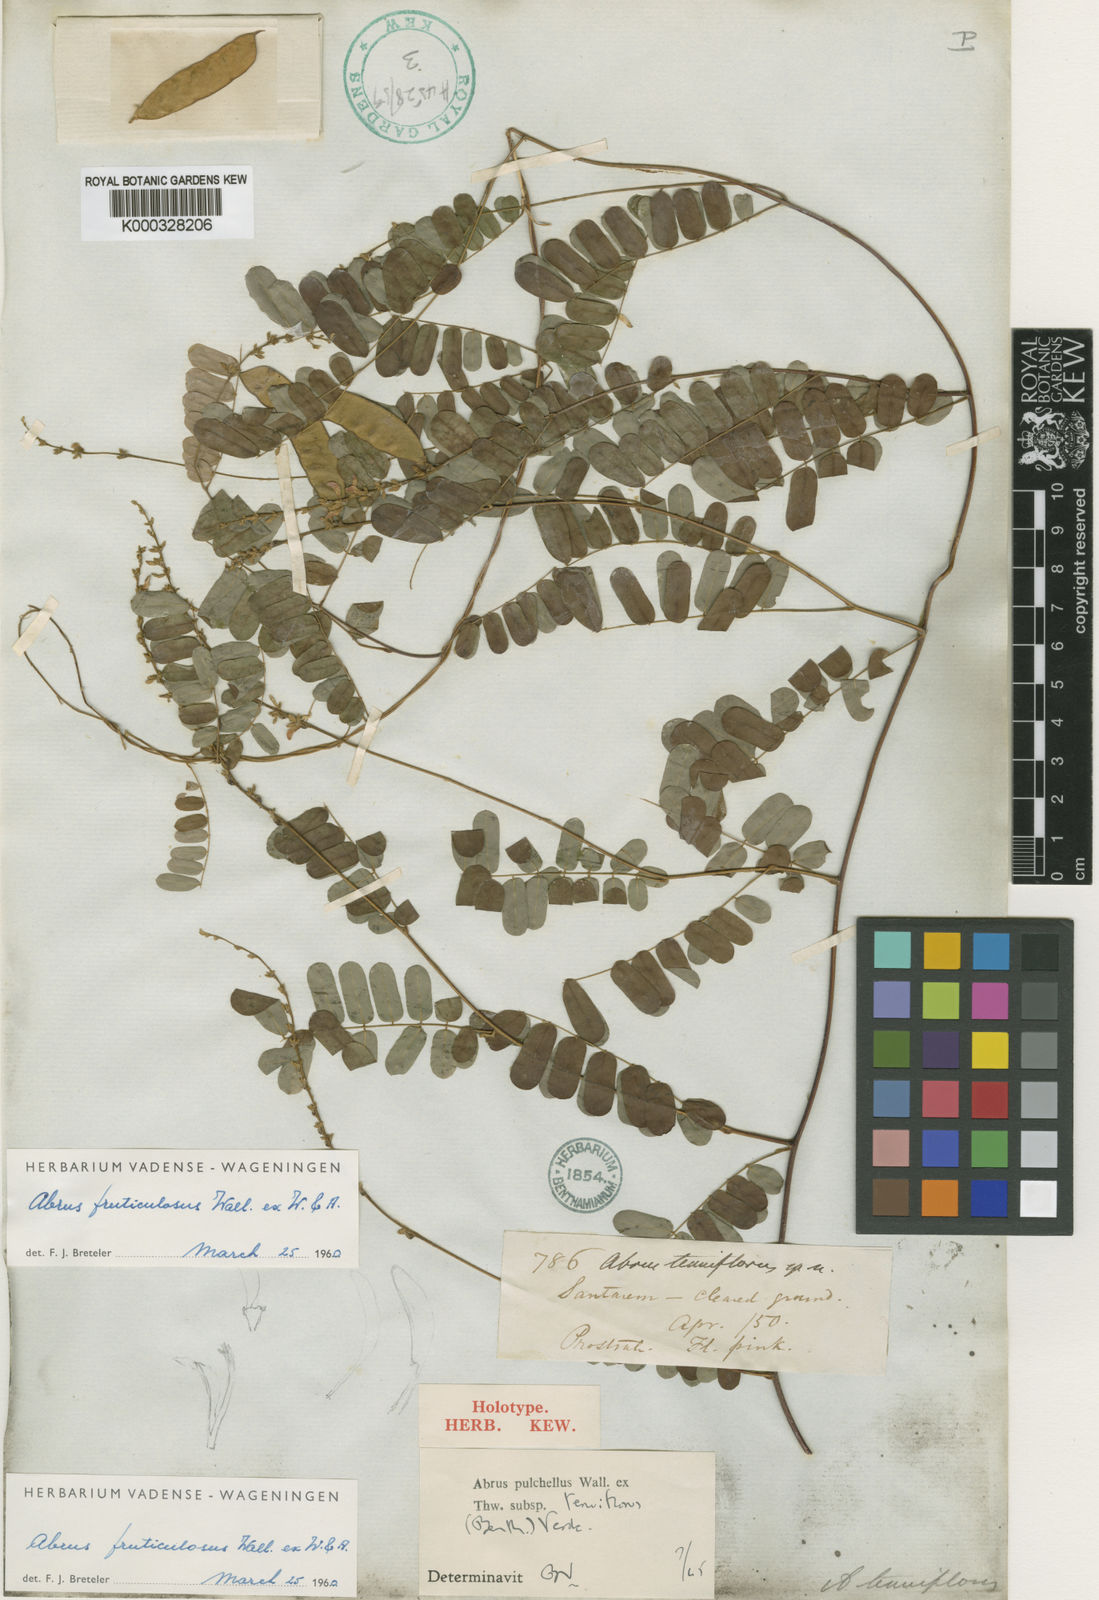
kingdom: Plantae
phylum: Tracheophyta
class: Magnoliopsida
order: Fabales
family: Fabaceae
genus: Abrus
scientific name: Abrus melanospermus
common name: Licorice-root
